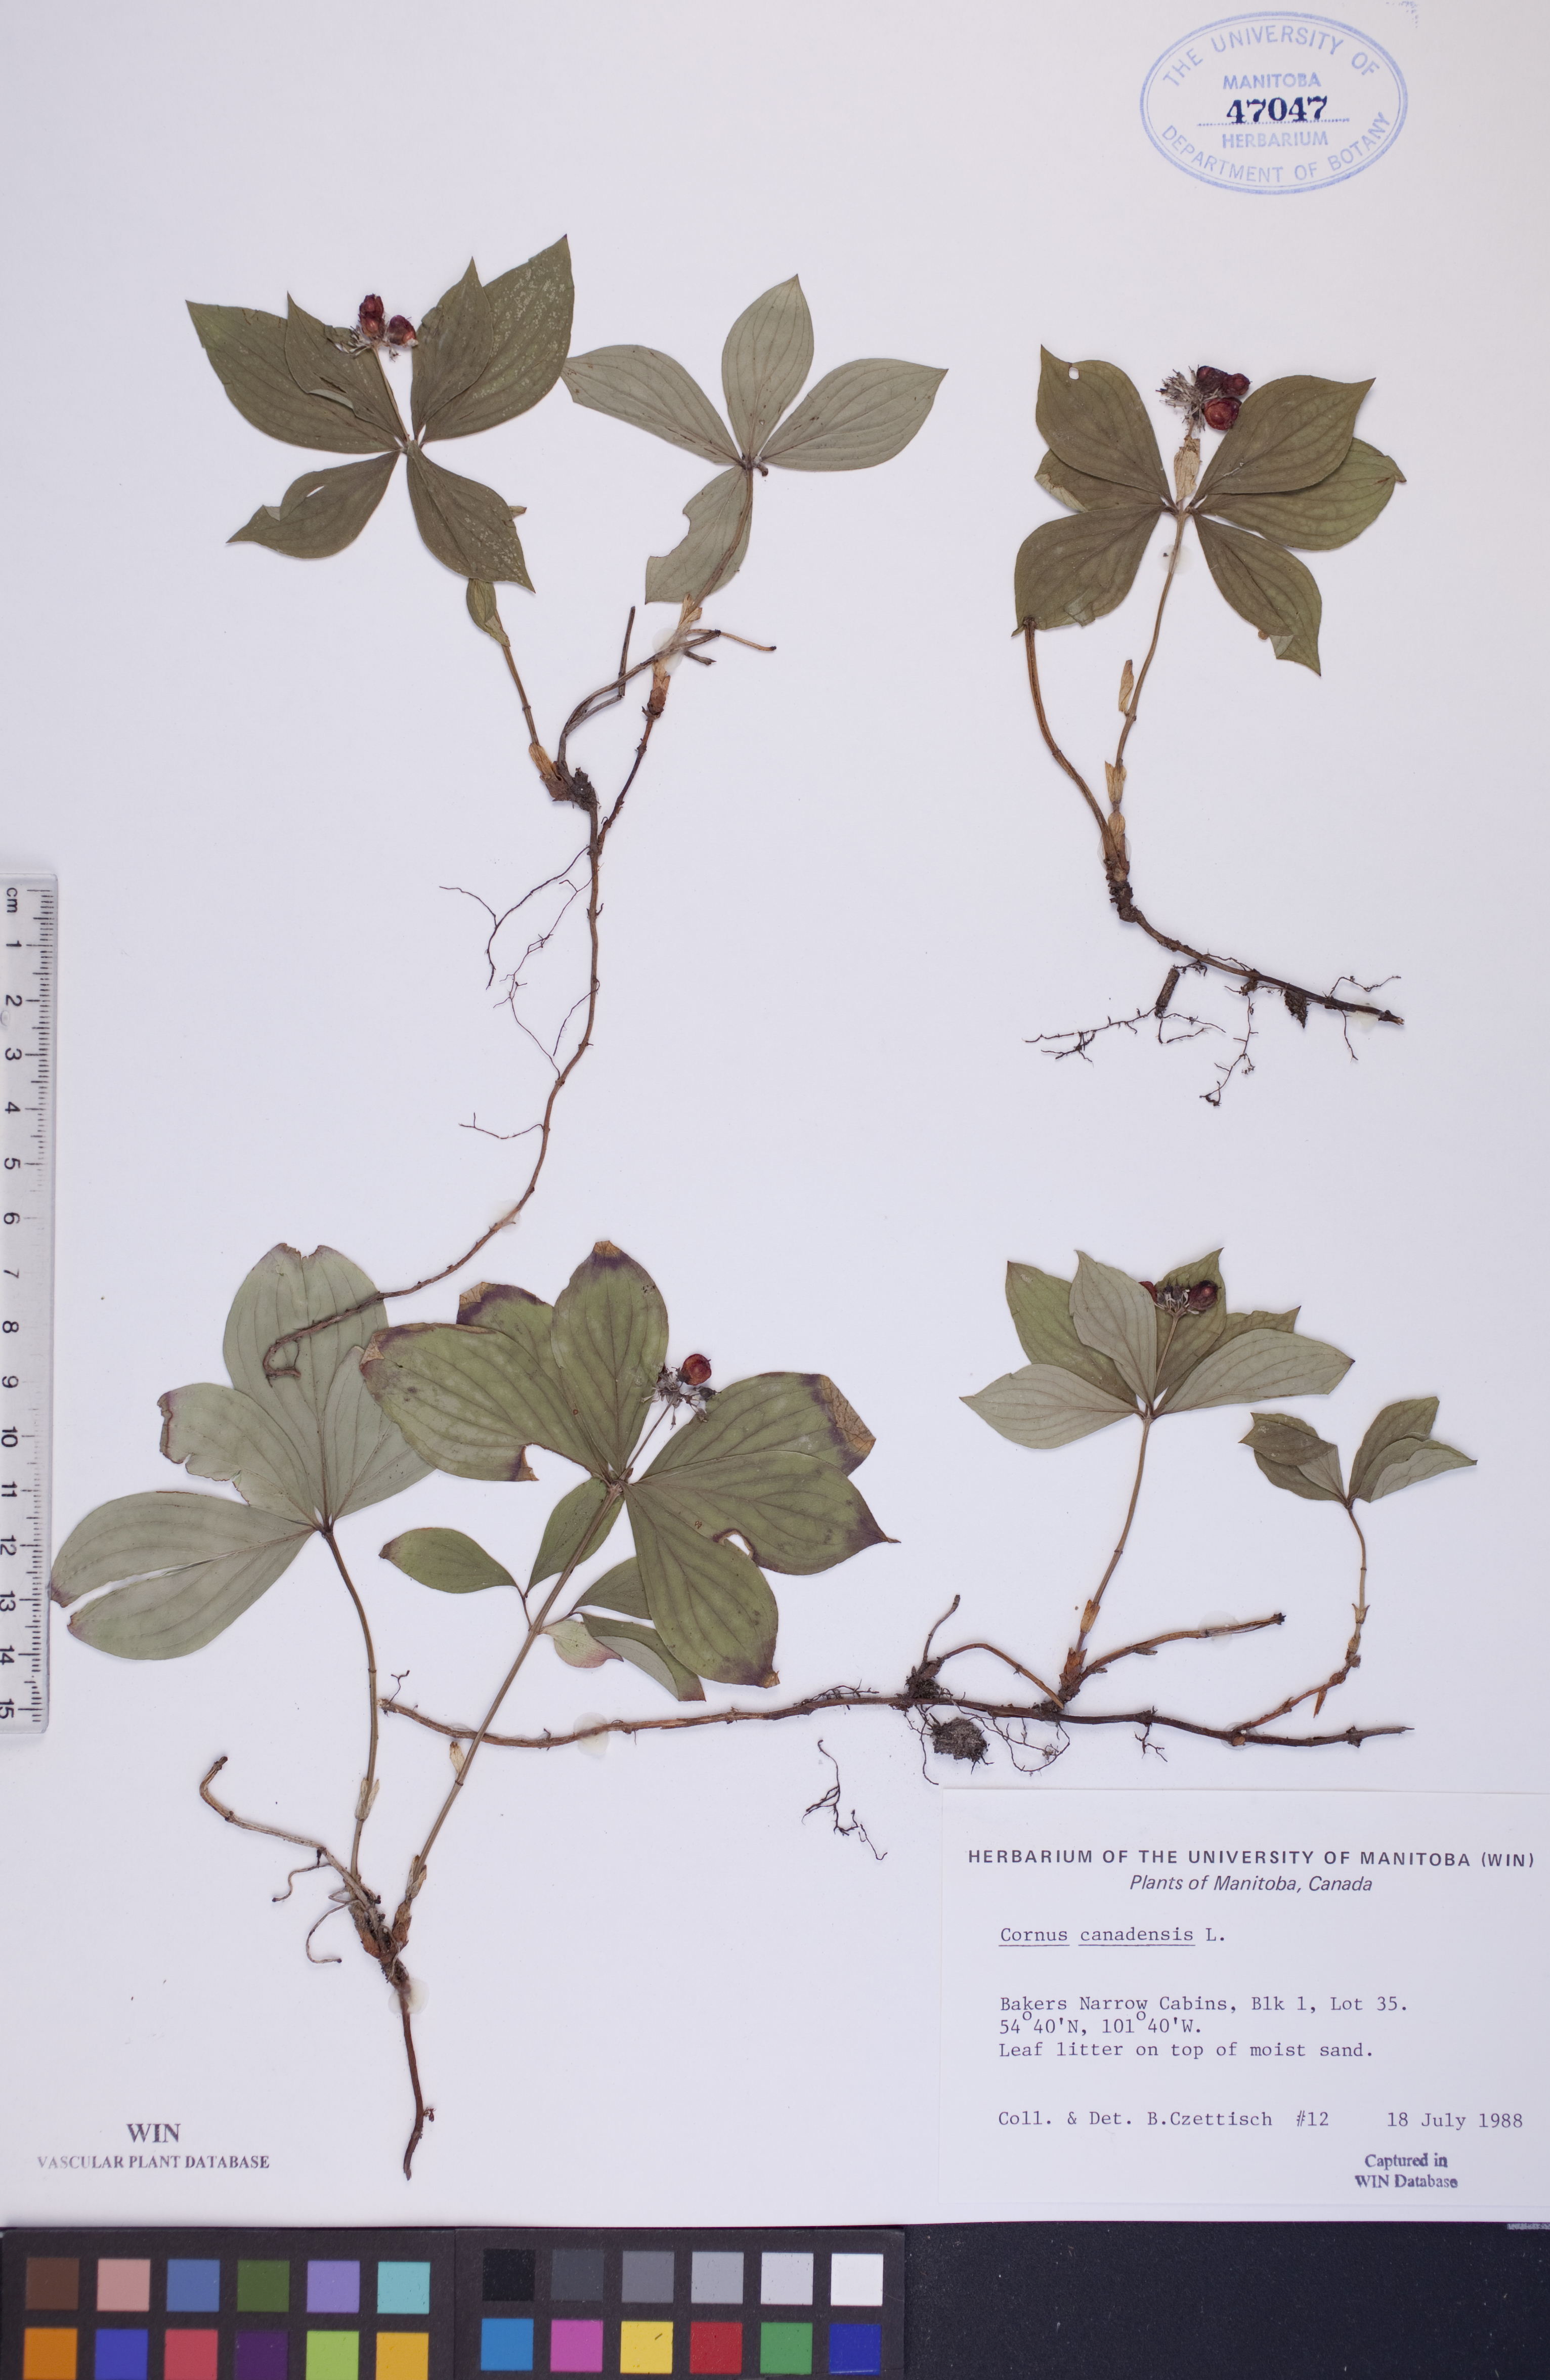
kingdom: Plantae
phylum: Tracheophyta
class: Magnoliopsida
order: Cornales
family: Cornaceae
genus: Cornus
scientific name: Cornus canadensis
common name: Creeping dogwood
